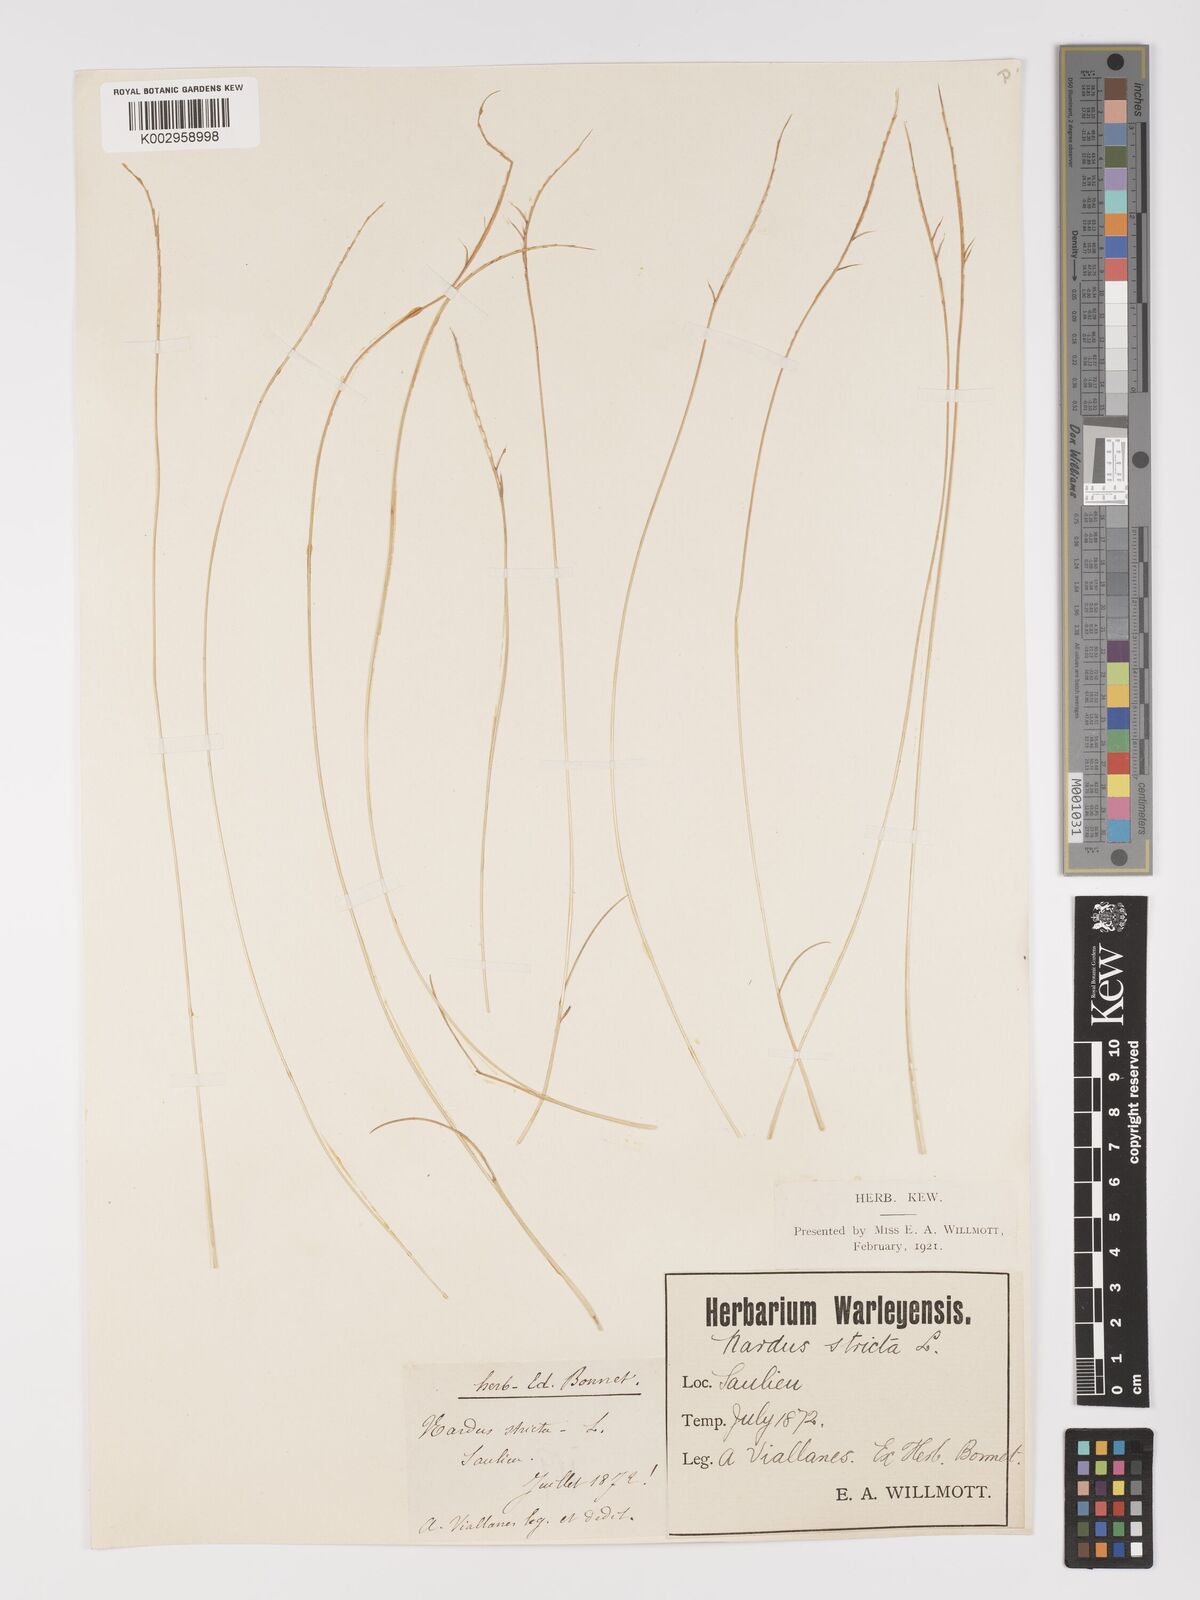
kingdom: Plantae
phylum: Tracheophyta
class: Liliopsida
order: Poales
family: Poaceae
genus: Nardus
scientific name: Nardus stricta
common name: Mat-grass
